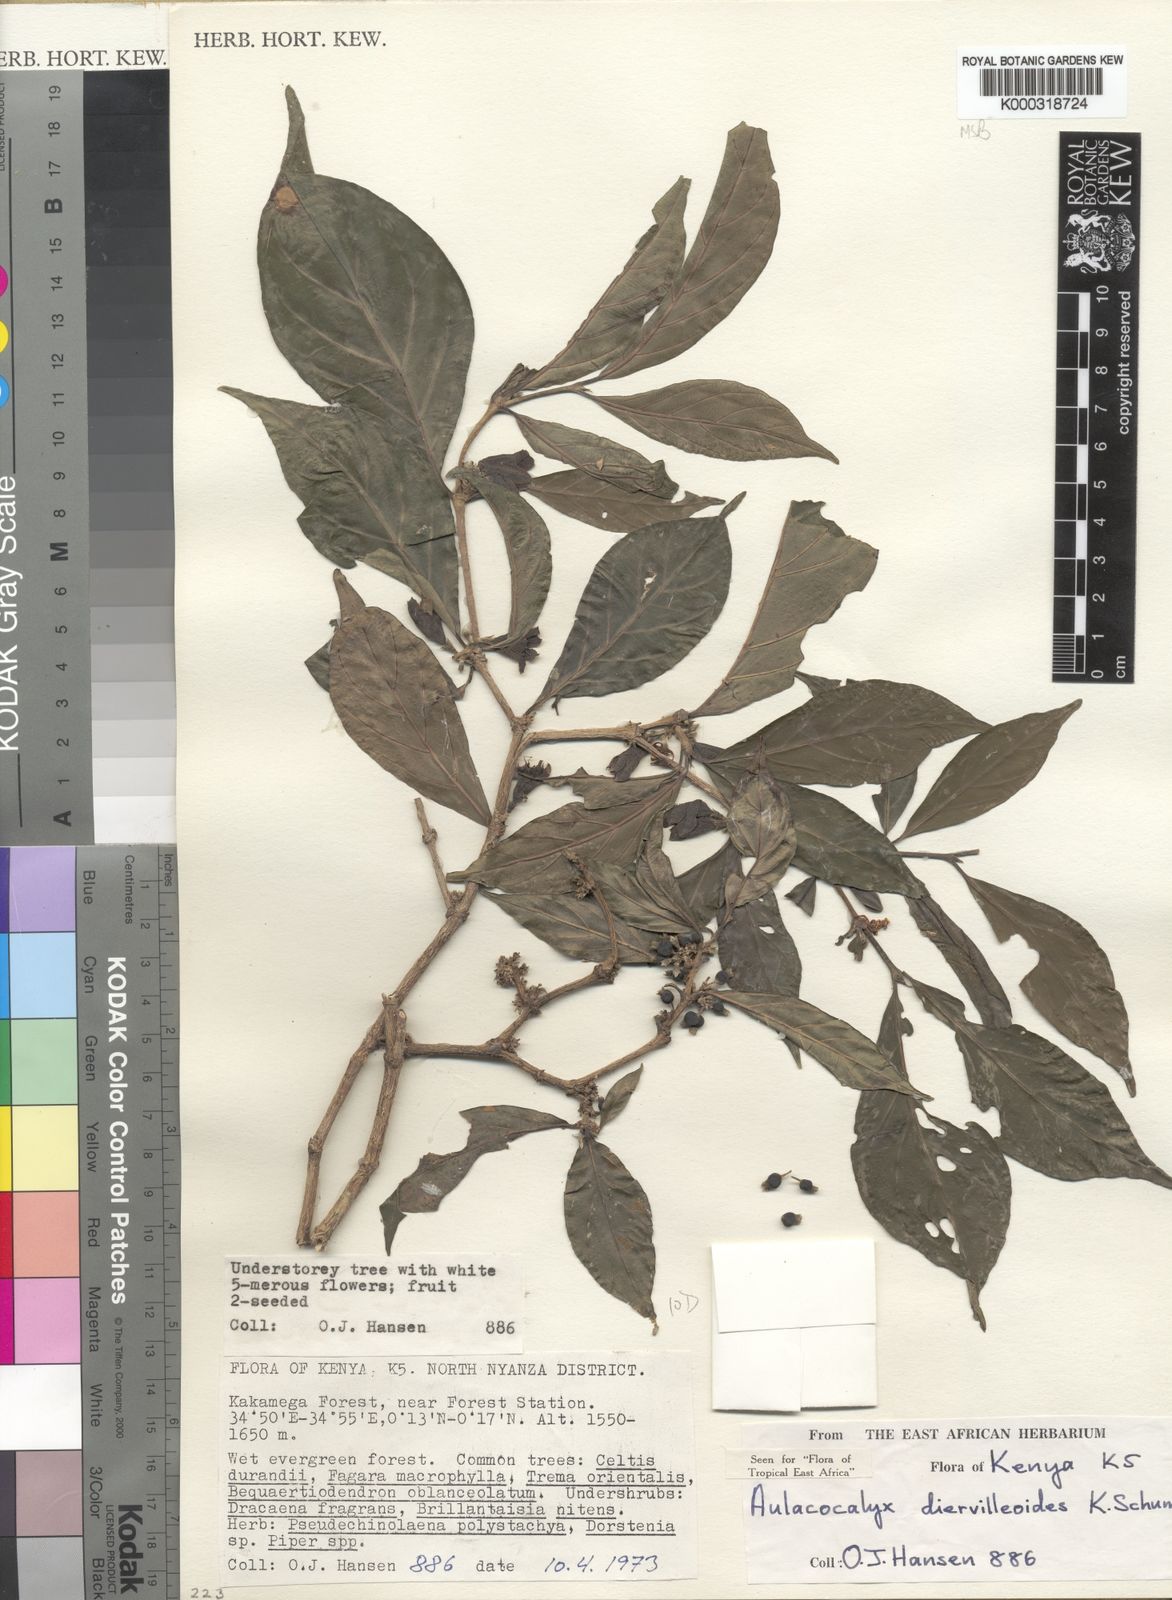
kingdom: Plantae
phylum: Tracheophyta
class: Magnoliopsida
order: Gentianales
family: Rubiaceae
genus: Heinsenia
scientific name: Heinsenia diervilleoides
